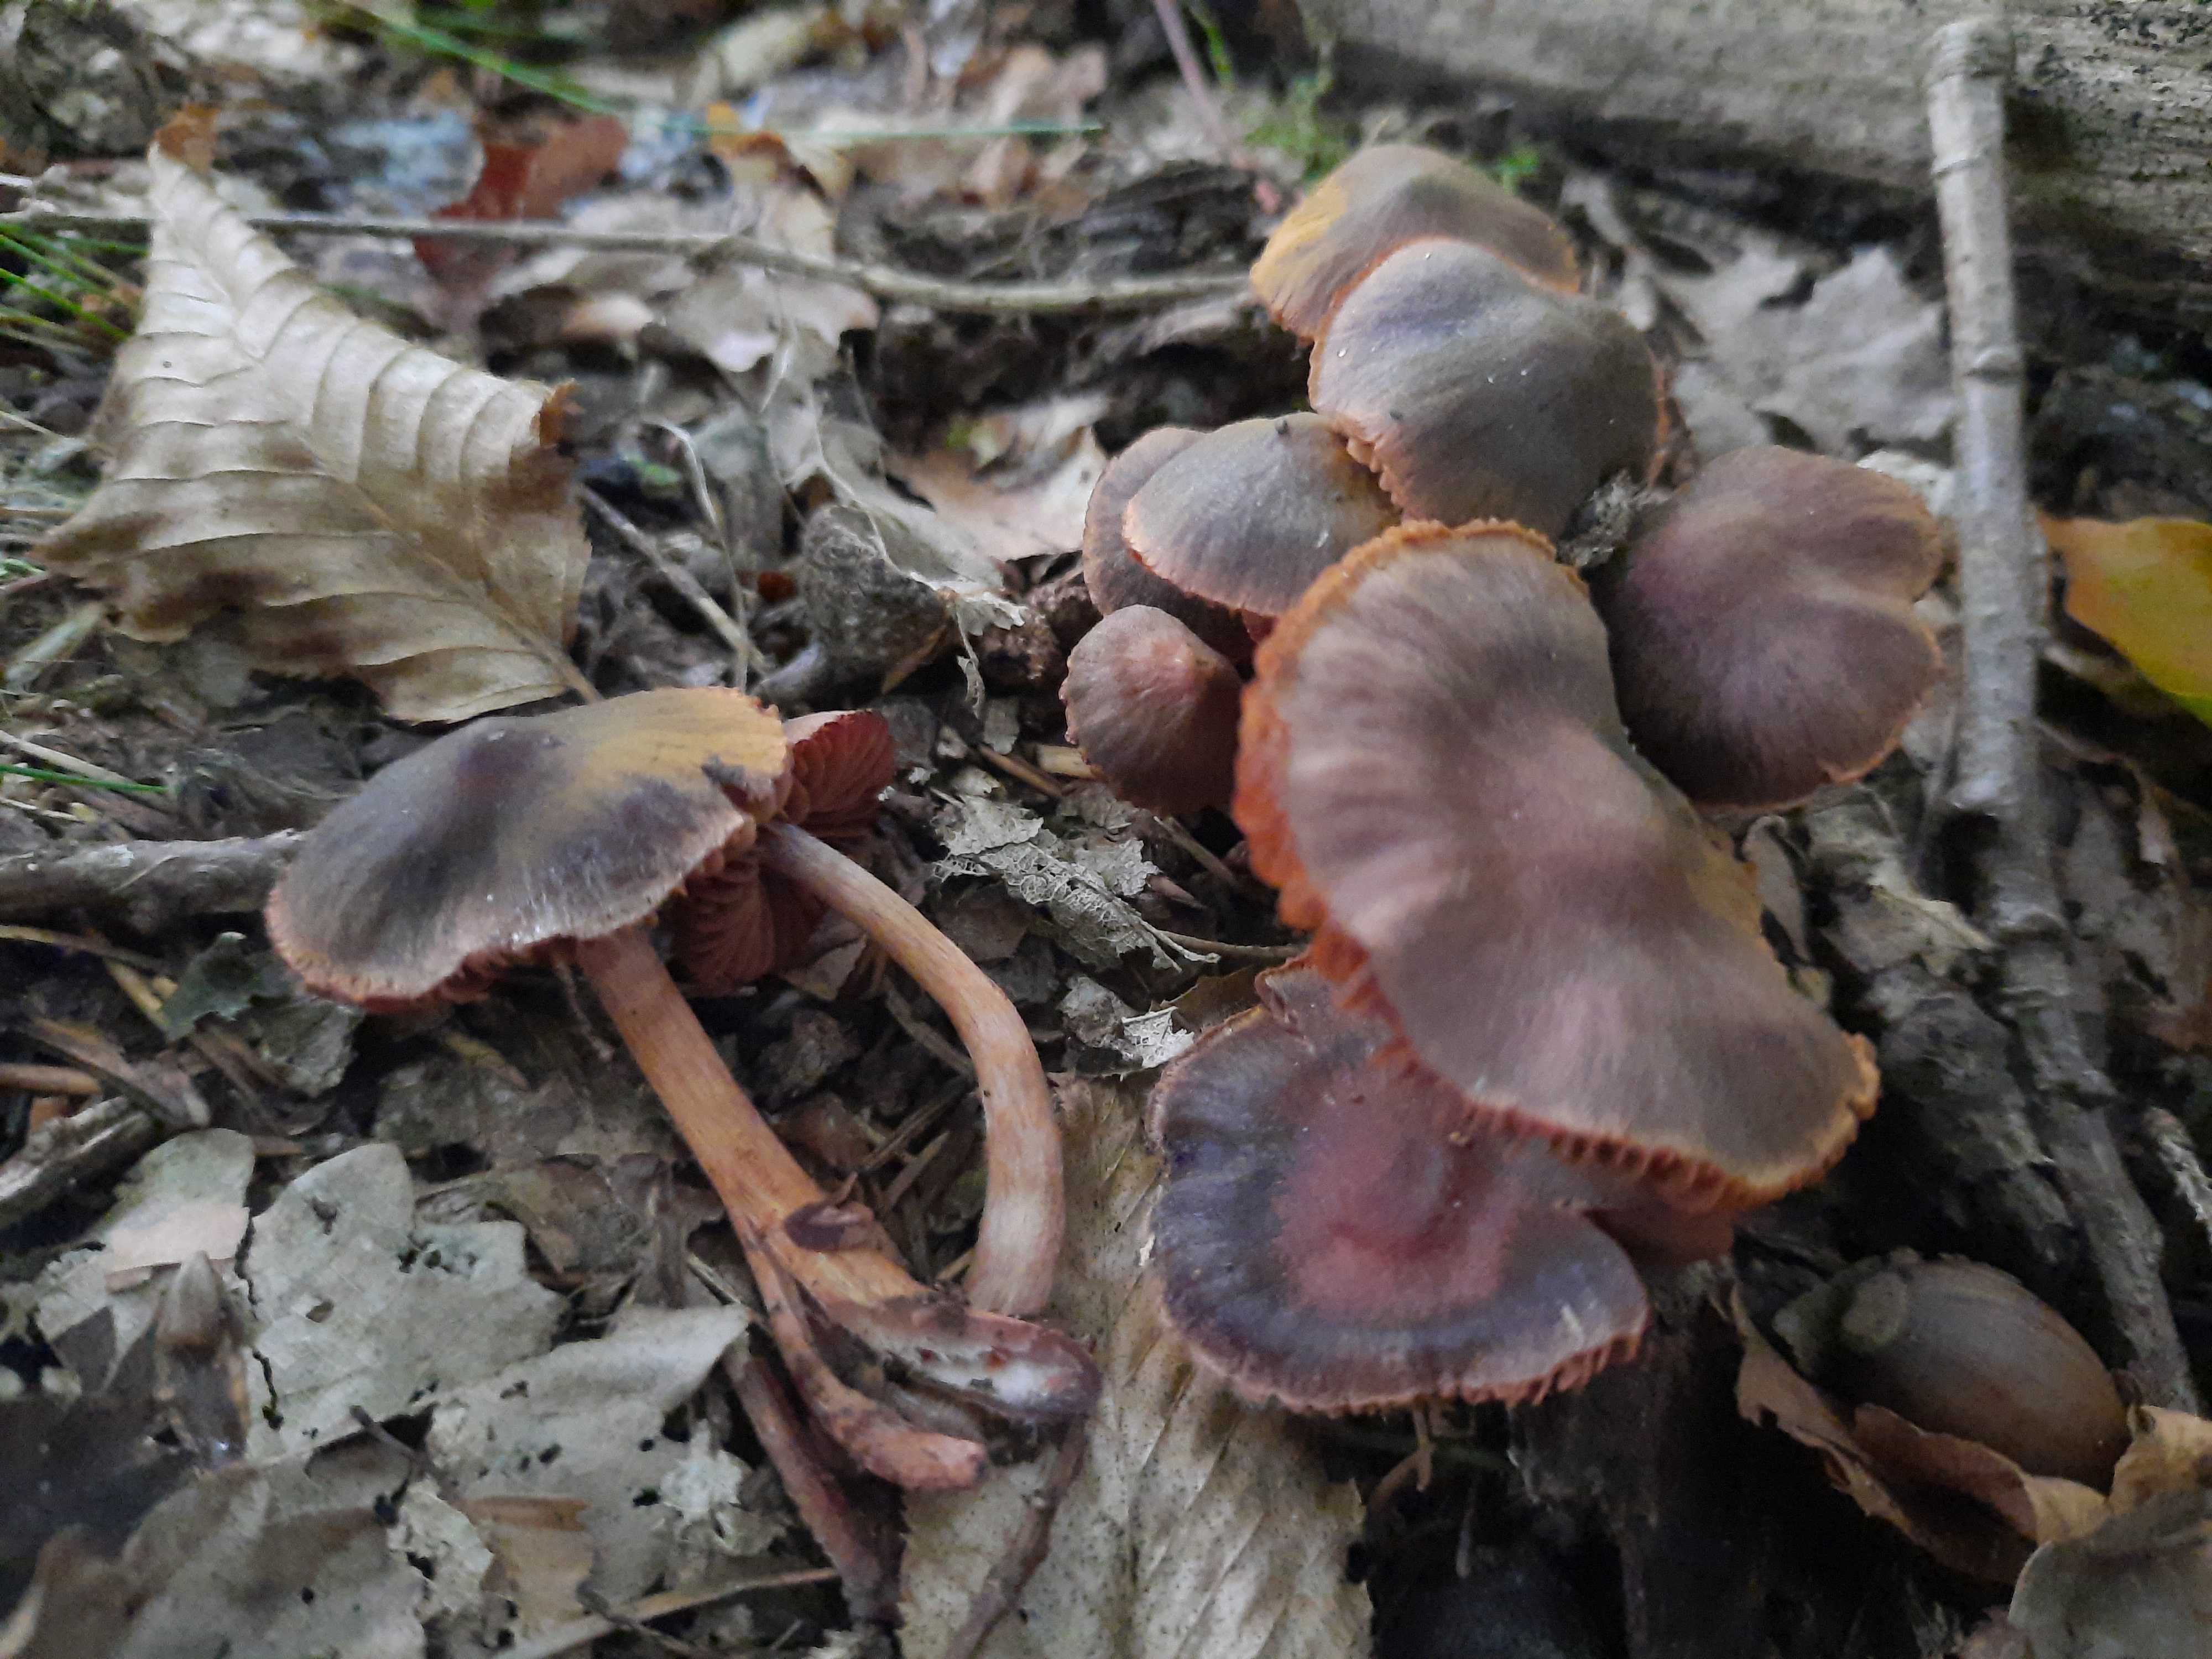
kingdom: Fungi
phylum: Basidiomycota
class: Agaricomycetes
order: Agaricales
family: Cortinariaceae
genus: Cortinarius
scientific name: Cortinarius anthracinus
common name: purpursort slørhat
